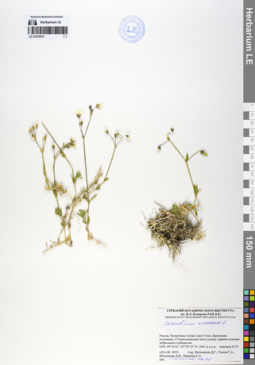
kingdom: Plantae
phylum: Tracheophyta
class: Magnoliopsida
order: Caryophyllales
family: Caryophyllaceae
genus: Cerastium
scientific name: Cerastium arvense
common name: Field mouse-ear
